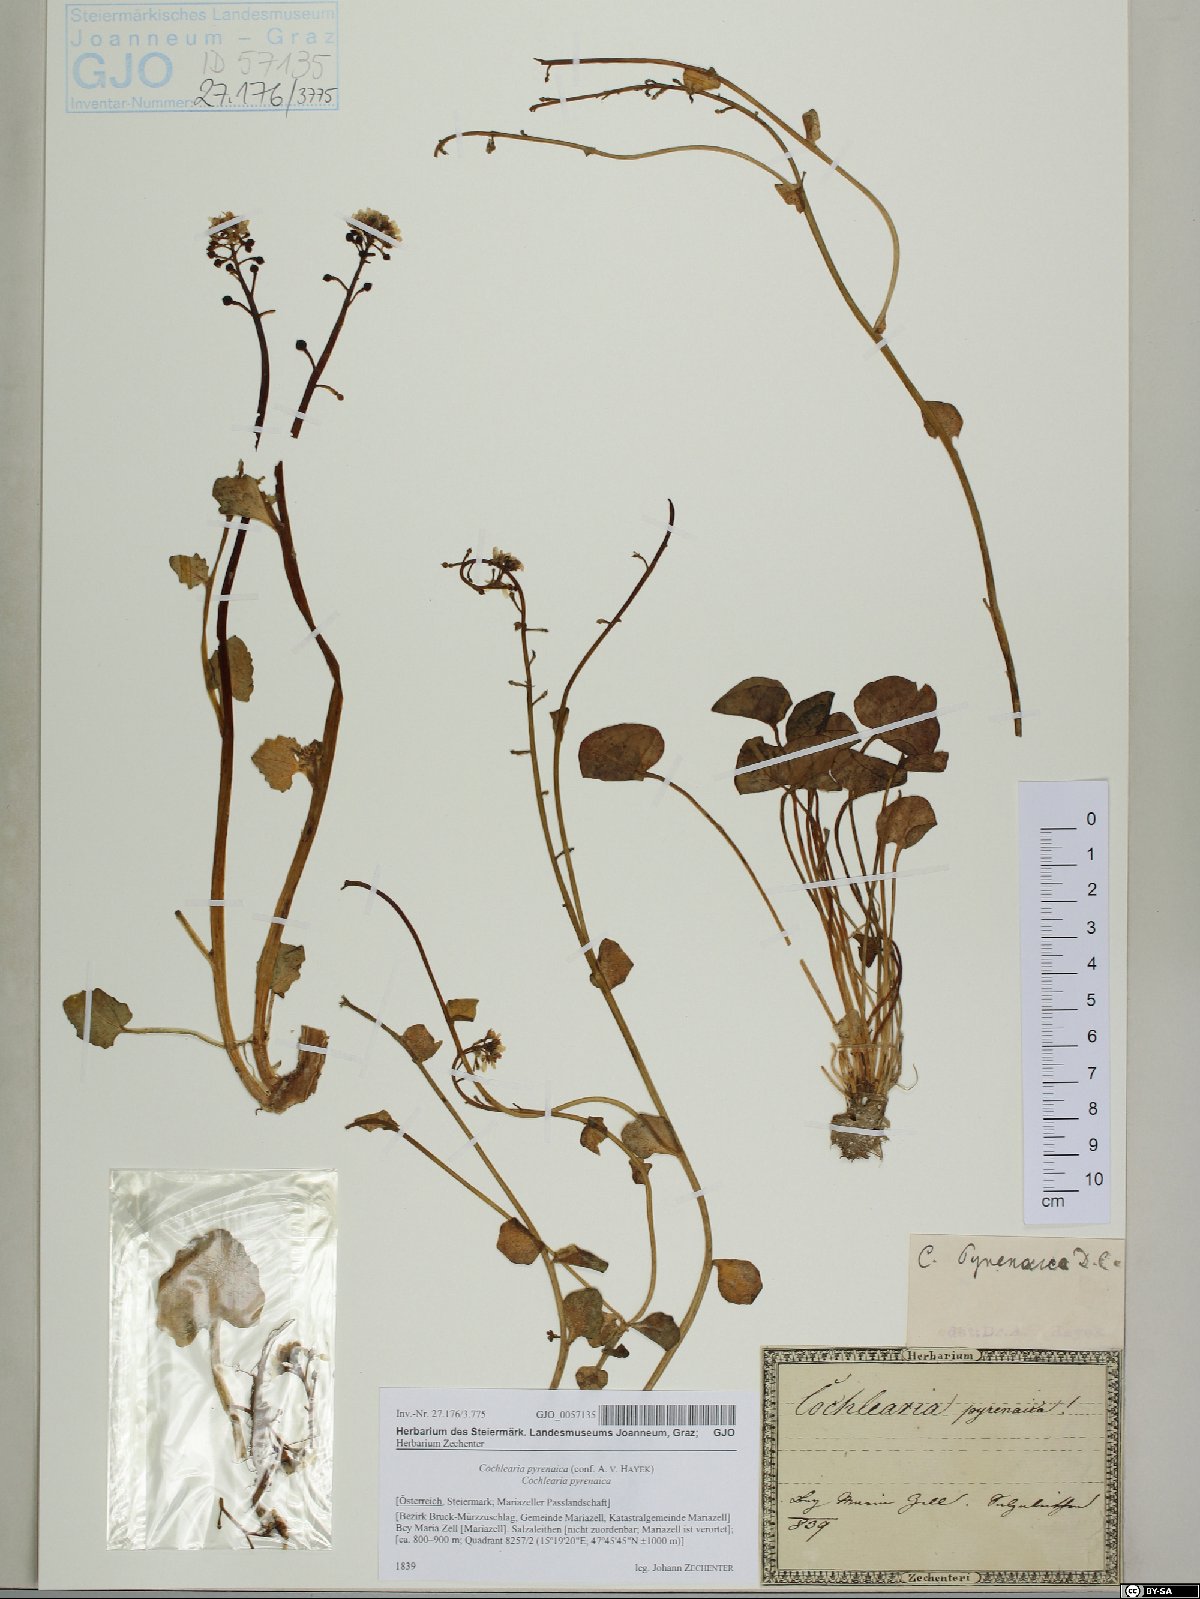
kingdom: Plantae
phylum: Tracheophyta
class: Magnoliopsida
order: Brassicales
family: Brassicaceae
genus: Cochlearia
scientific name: Cochlearia pyrenaica
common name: Upland scurvy-grass
